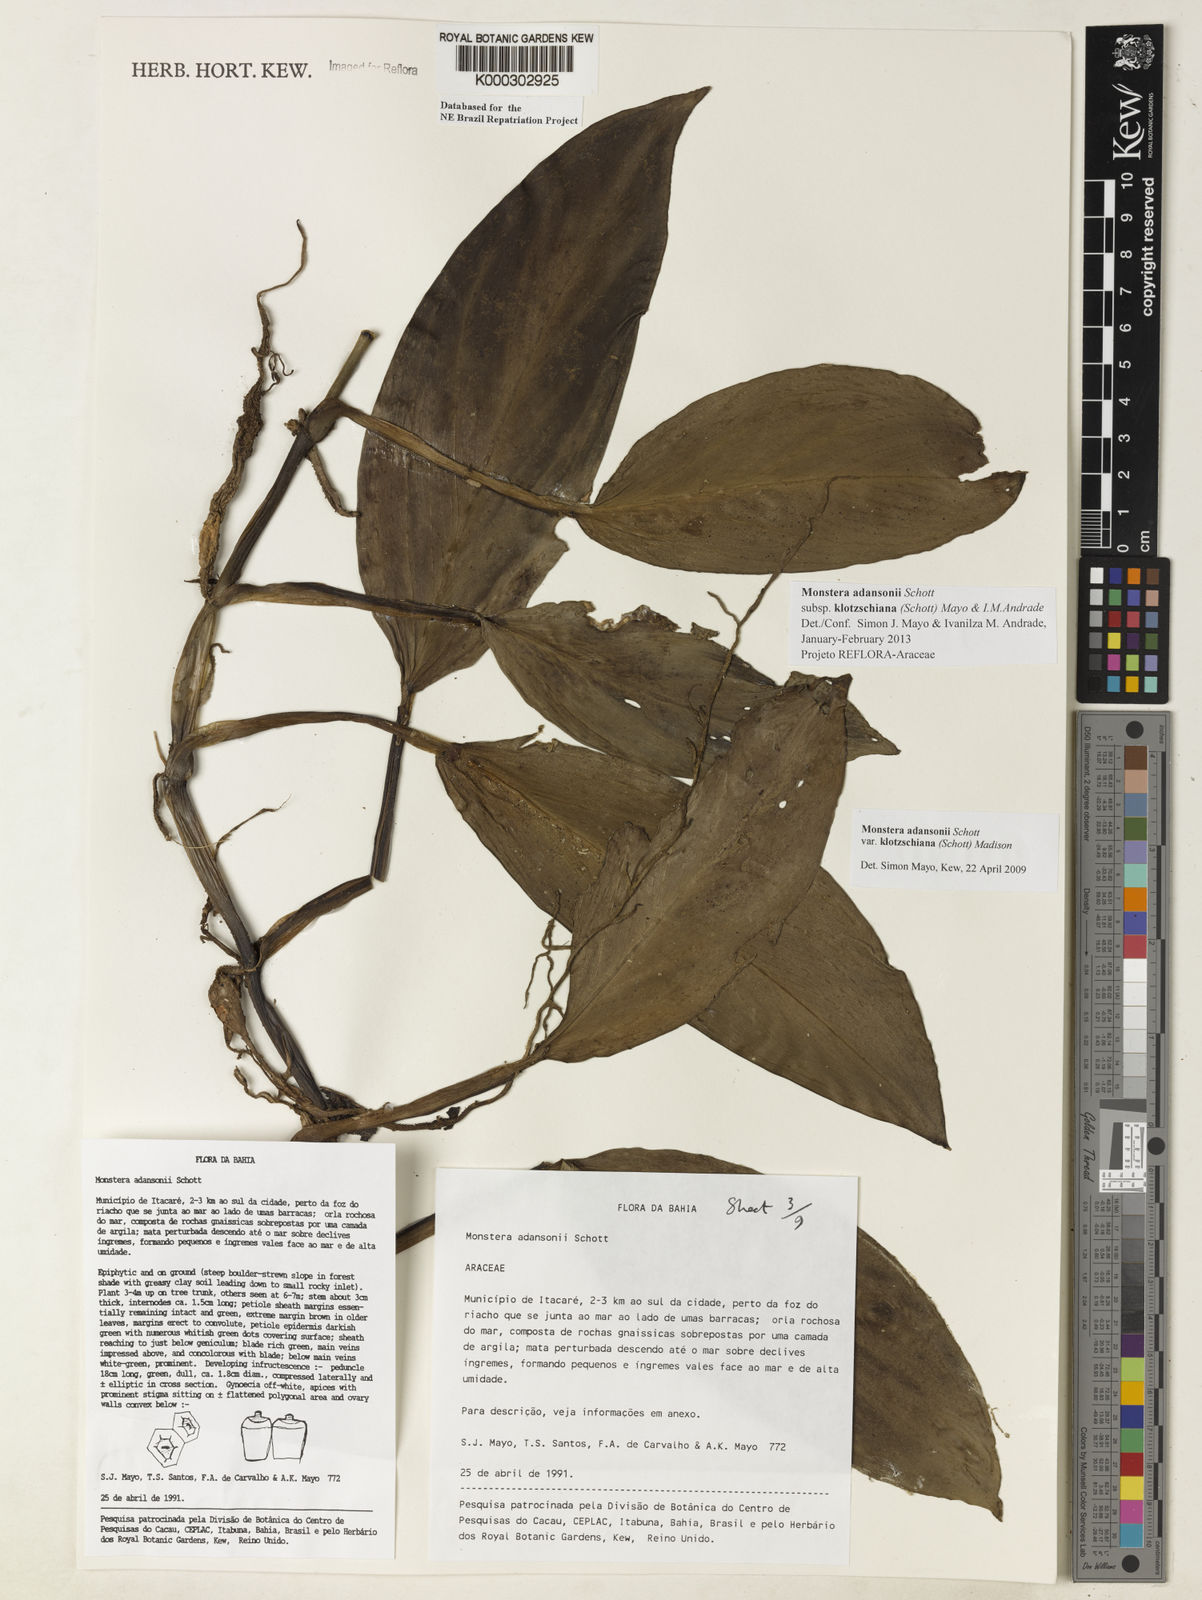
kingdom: Plantae
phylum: Tracheophyta
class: Liliopsida
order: Alismatales
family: Araceae
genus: Monstera
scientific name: Monstera adansonii
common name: Tarovine
